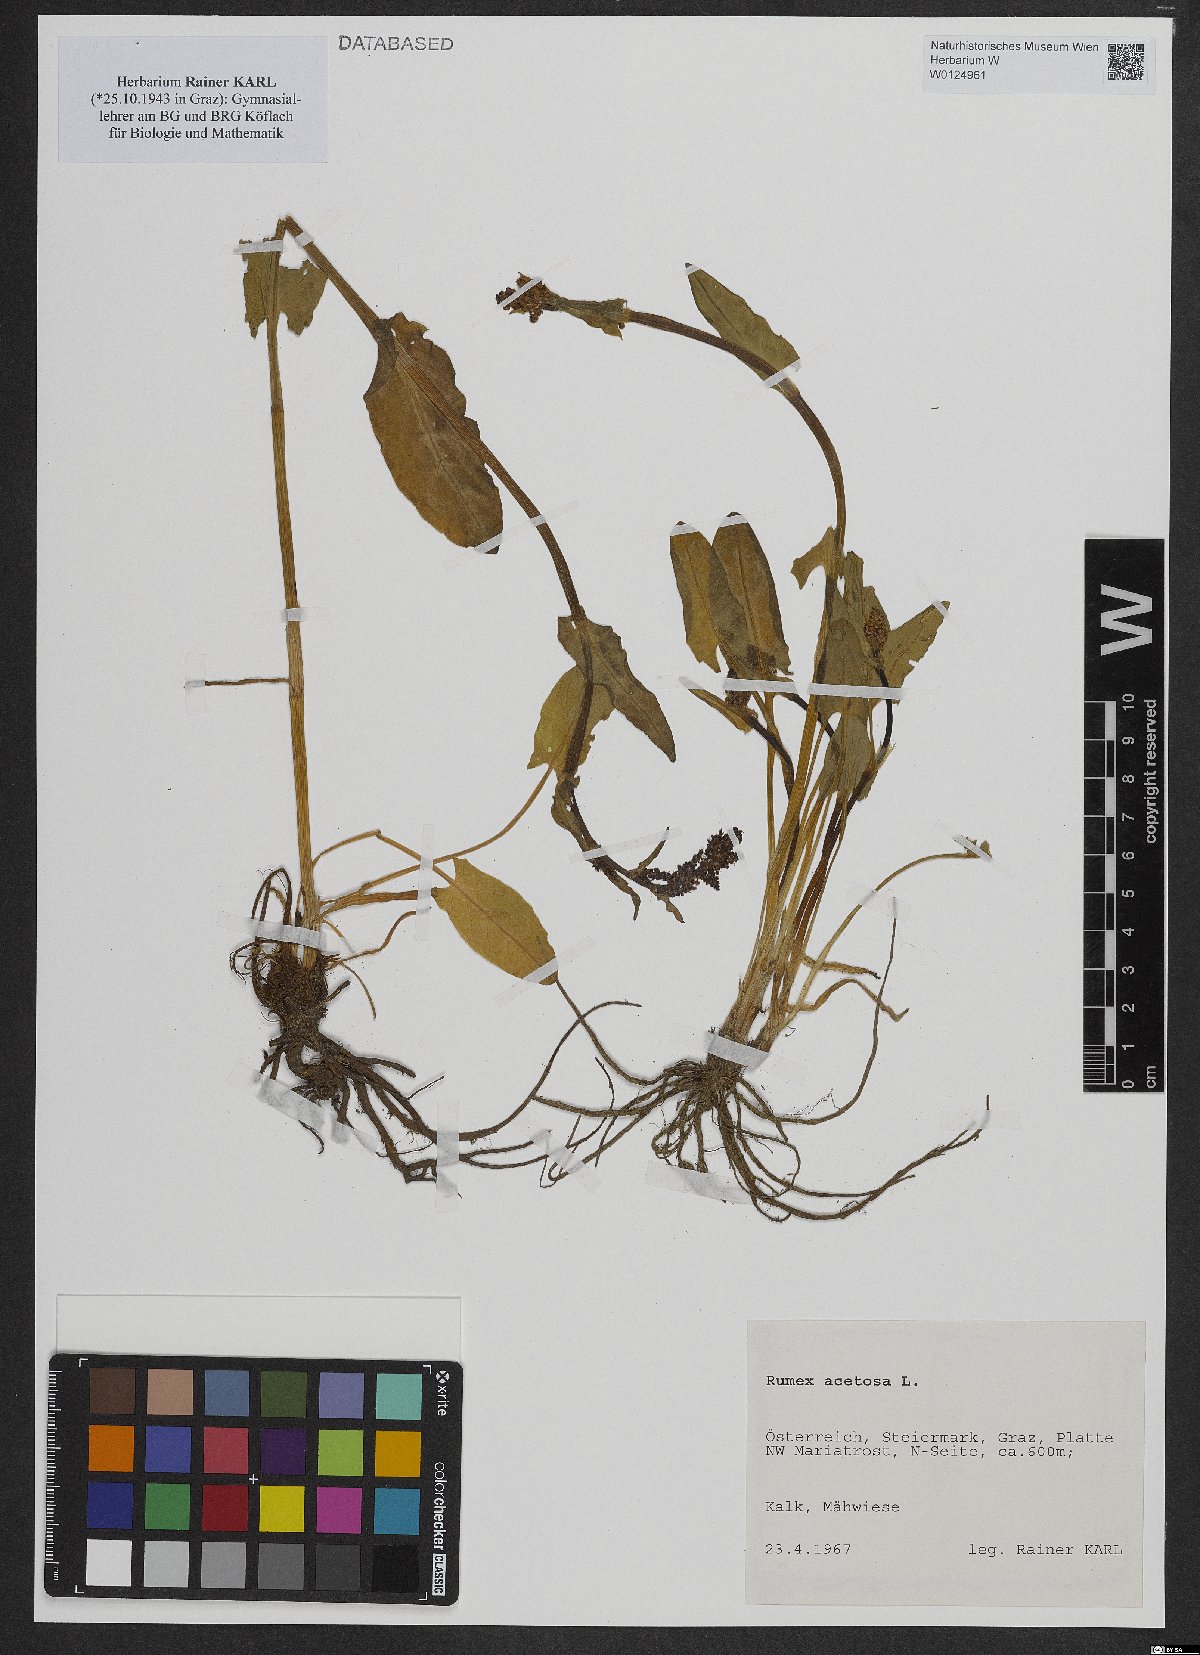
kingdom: Plantae
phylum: Tracheophyta
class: Magnoliopsida
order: Caryophyllales
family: Polygonaceae
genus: Rumex
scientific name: Rumex acetosa
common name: Garden sorrel
